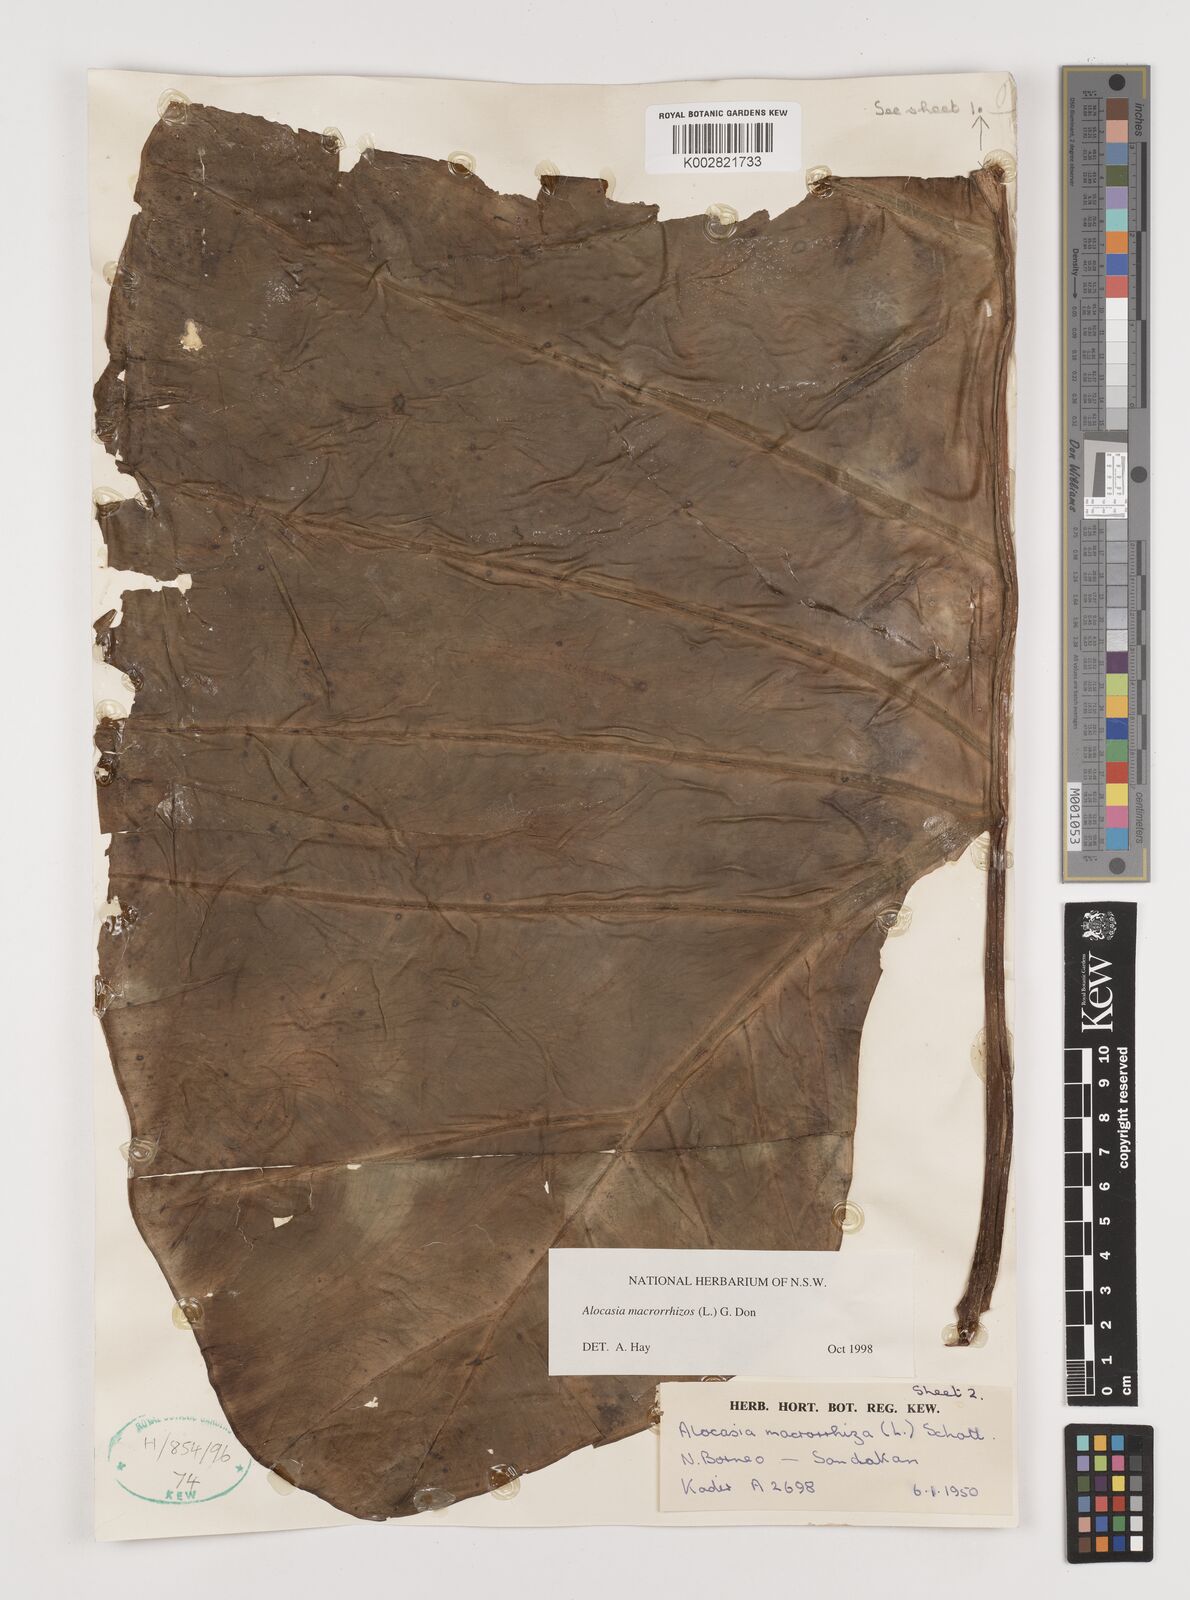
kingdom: Plantae
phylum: Tracheophyta
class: Liliopsida
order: Alismatales
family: Araceae
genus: Alocasia
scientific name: Alocasia macrorrhizos
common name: Giant taro
